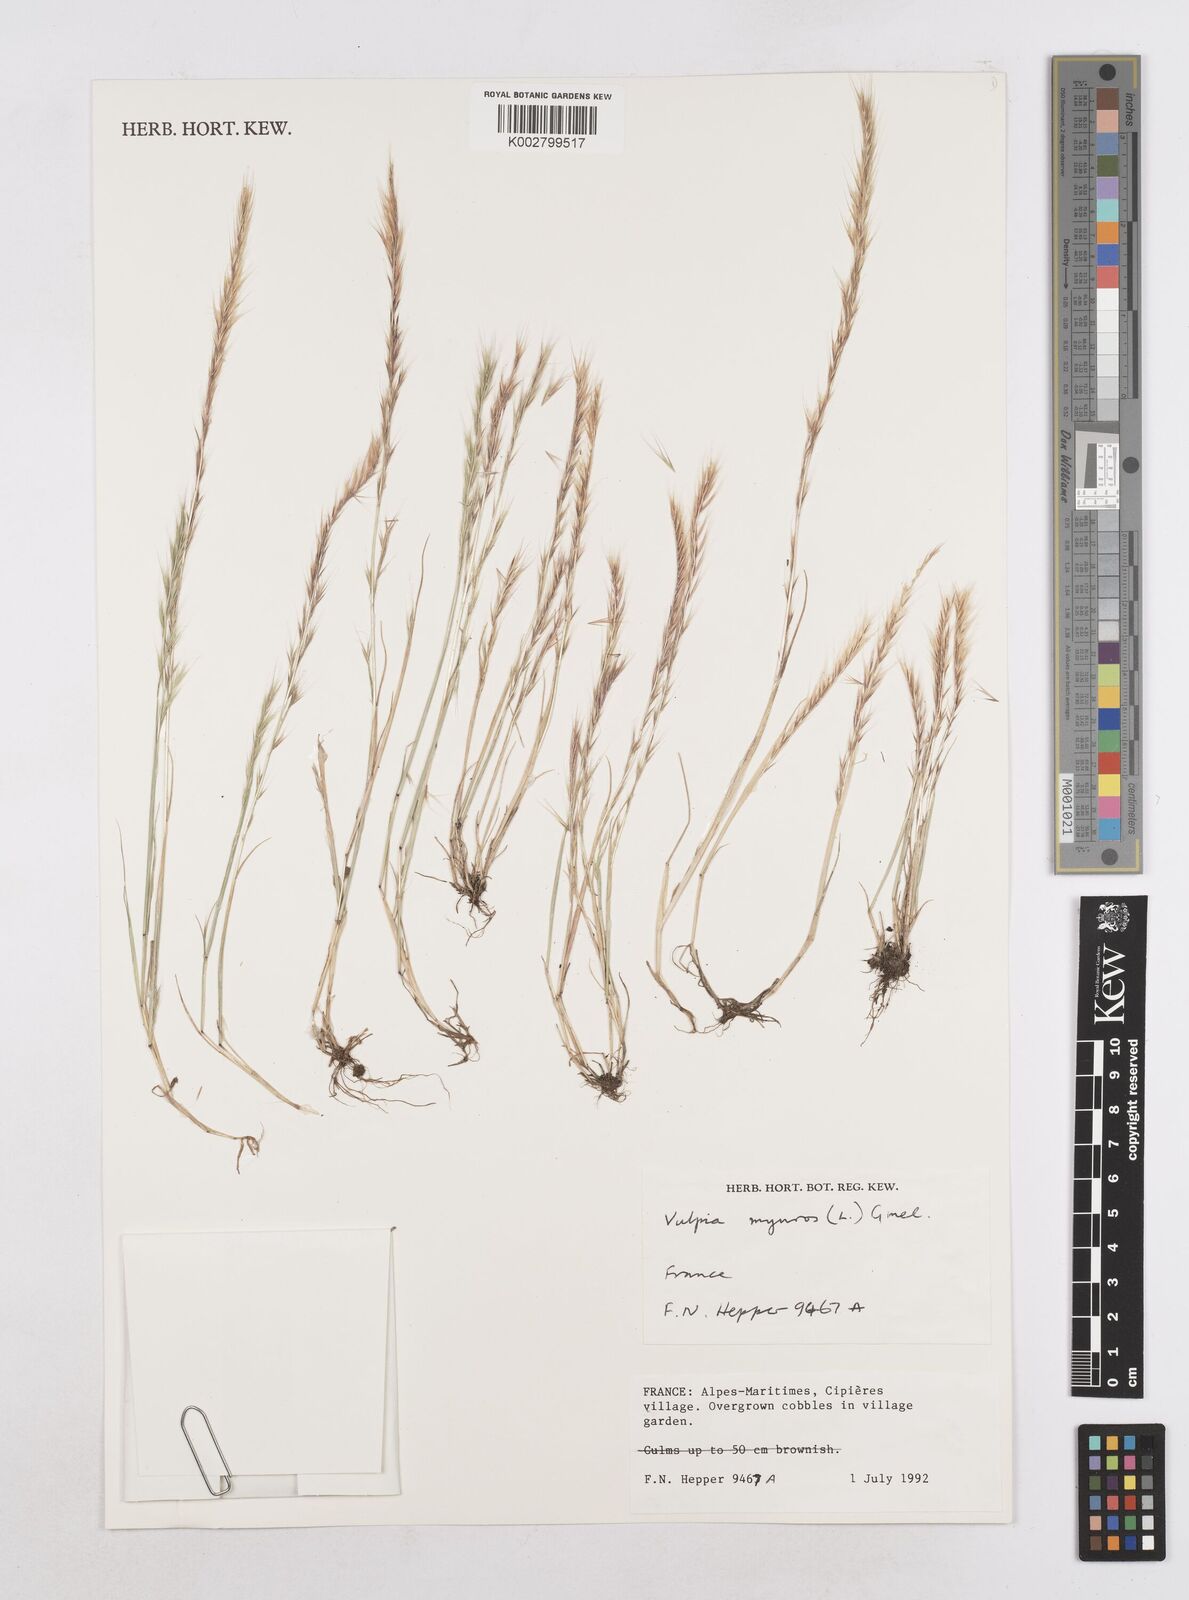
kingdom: Plantae
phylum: Tracheophyta
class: Liliopsida
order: Poales
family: Poaceae
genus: Festuca
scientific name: Festuca myuros
